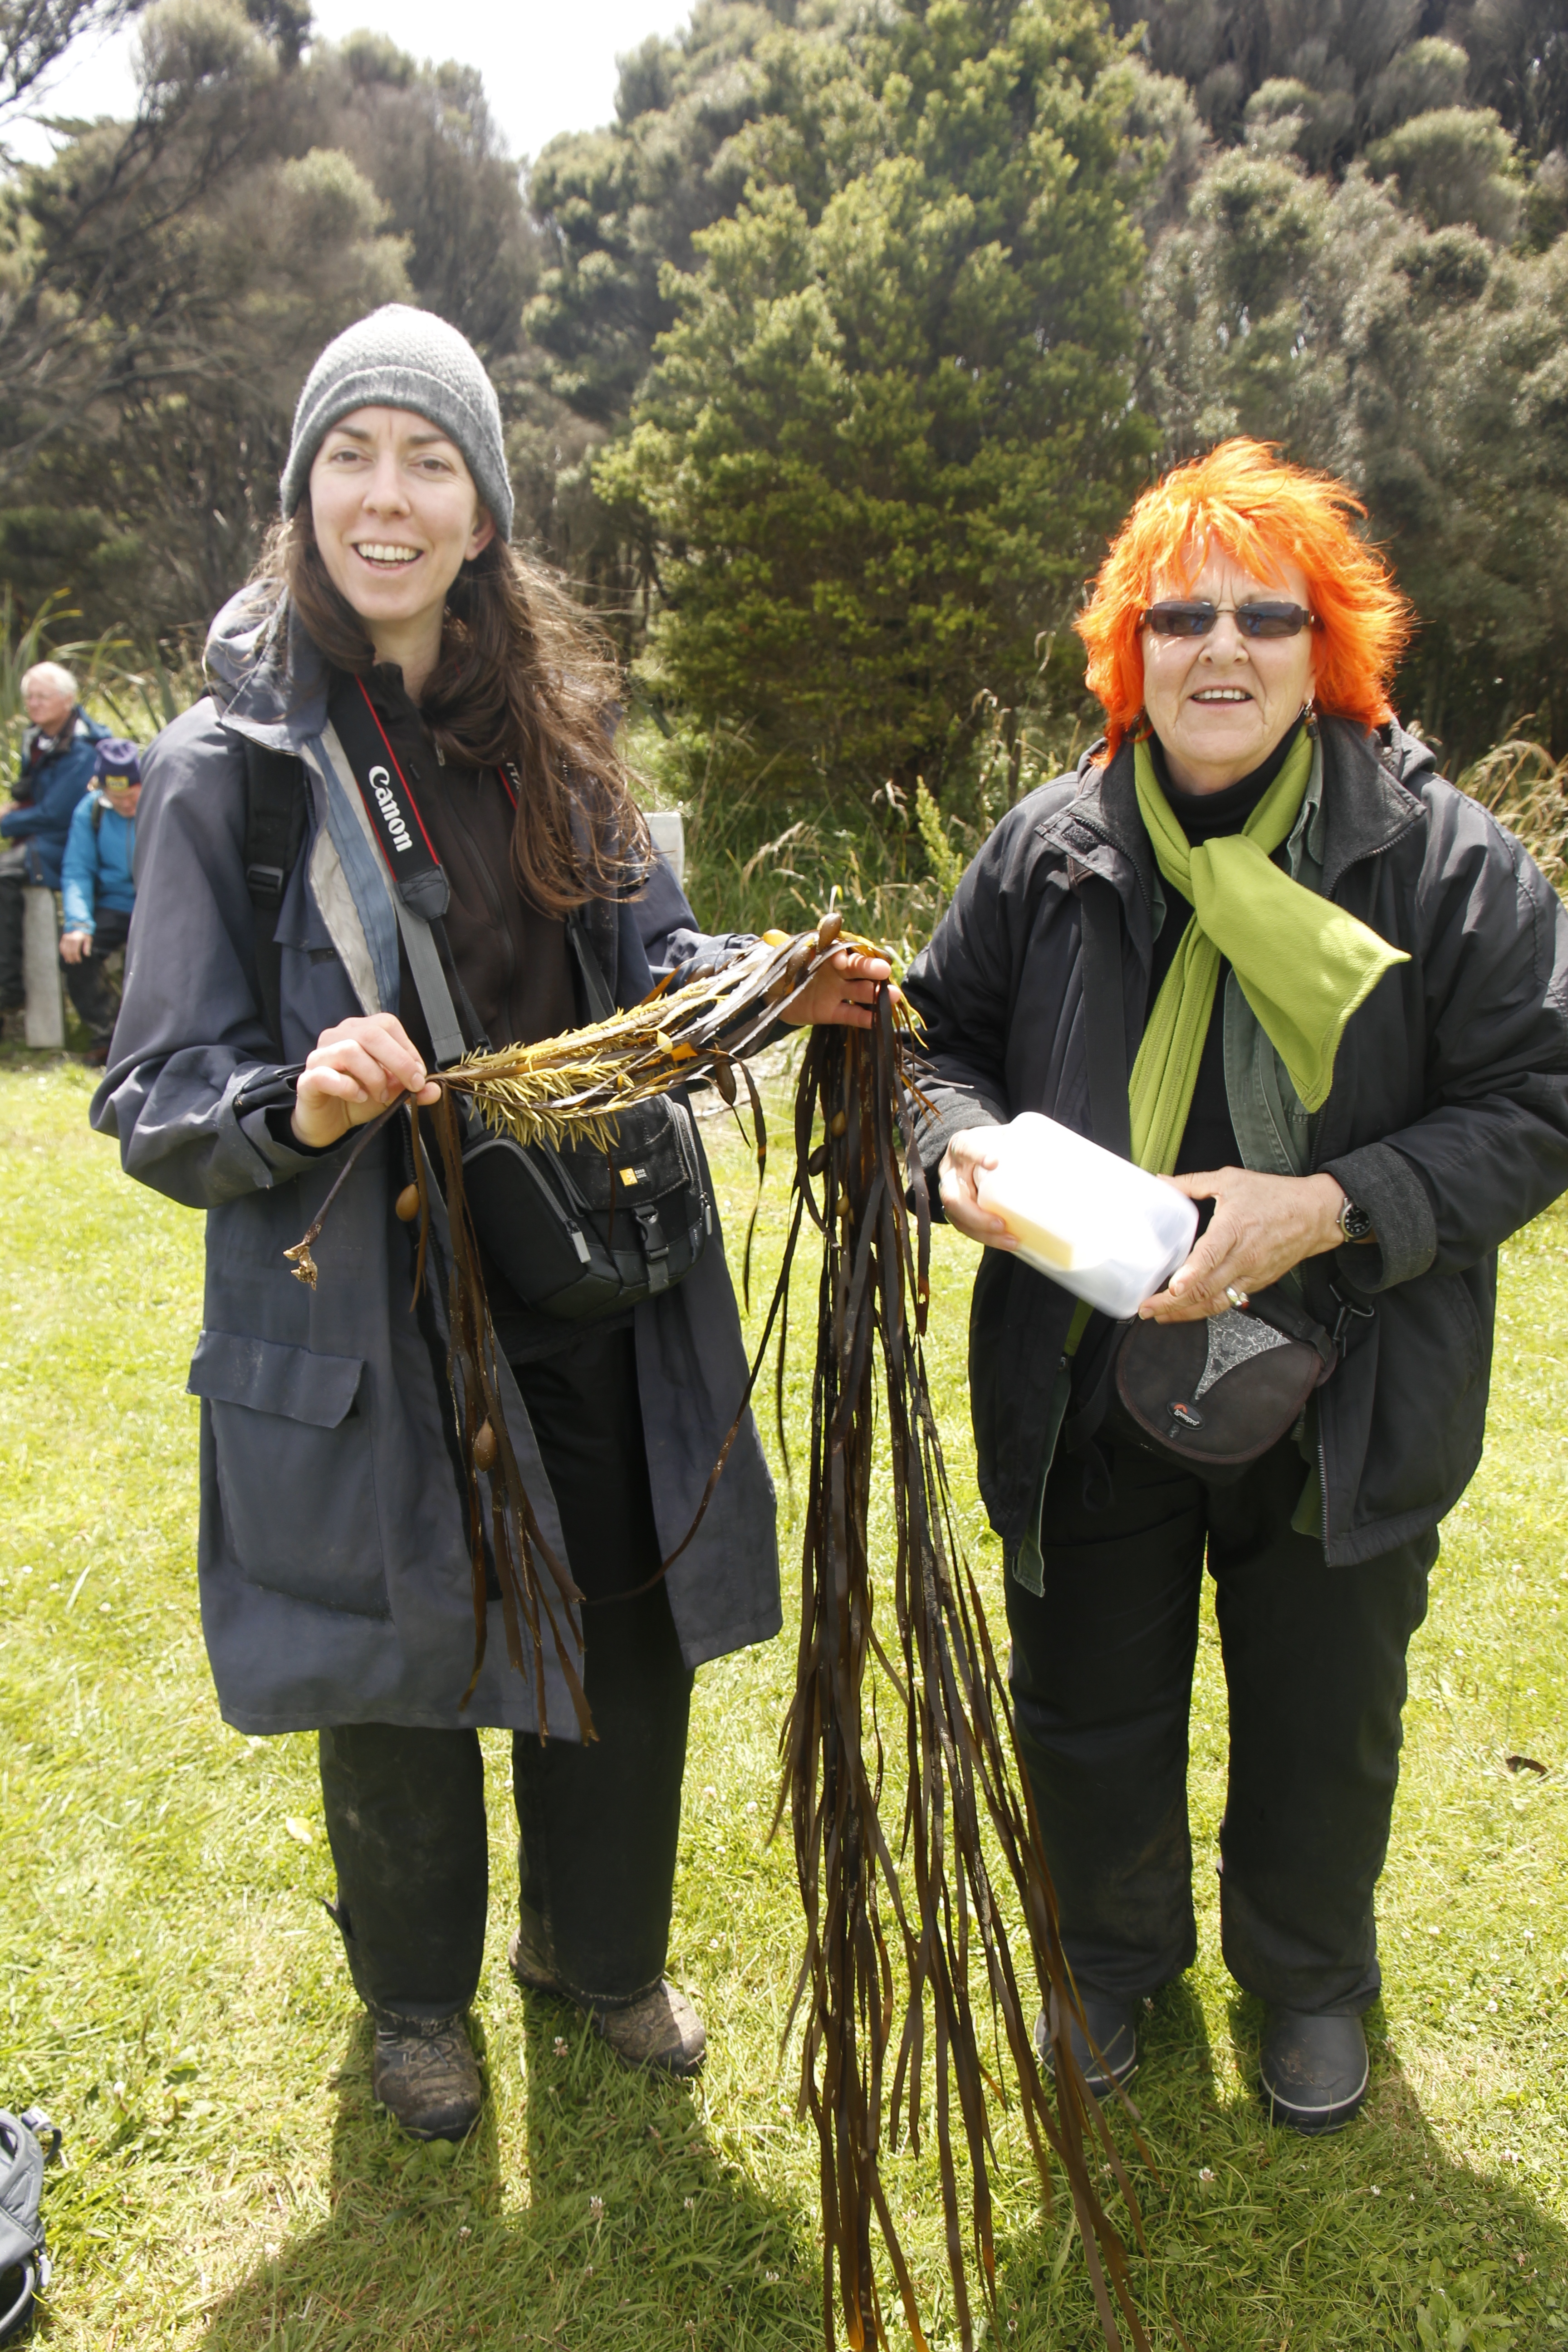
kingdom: Chromista
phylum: Ochrophyta
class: Phaeophyceae
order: Fucales
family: Seirococcaceae
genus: Marginariella
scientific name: Marginariella boryana
